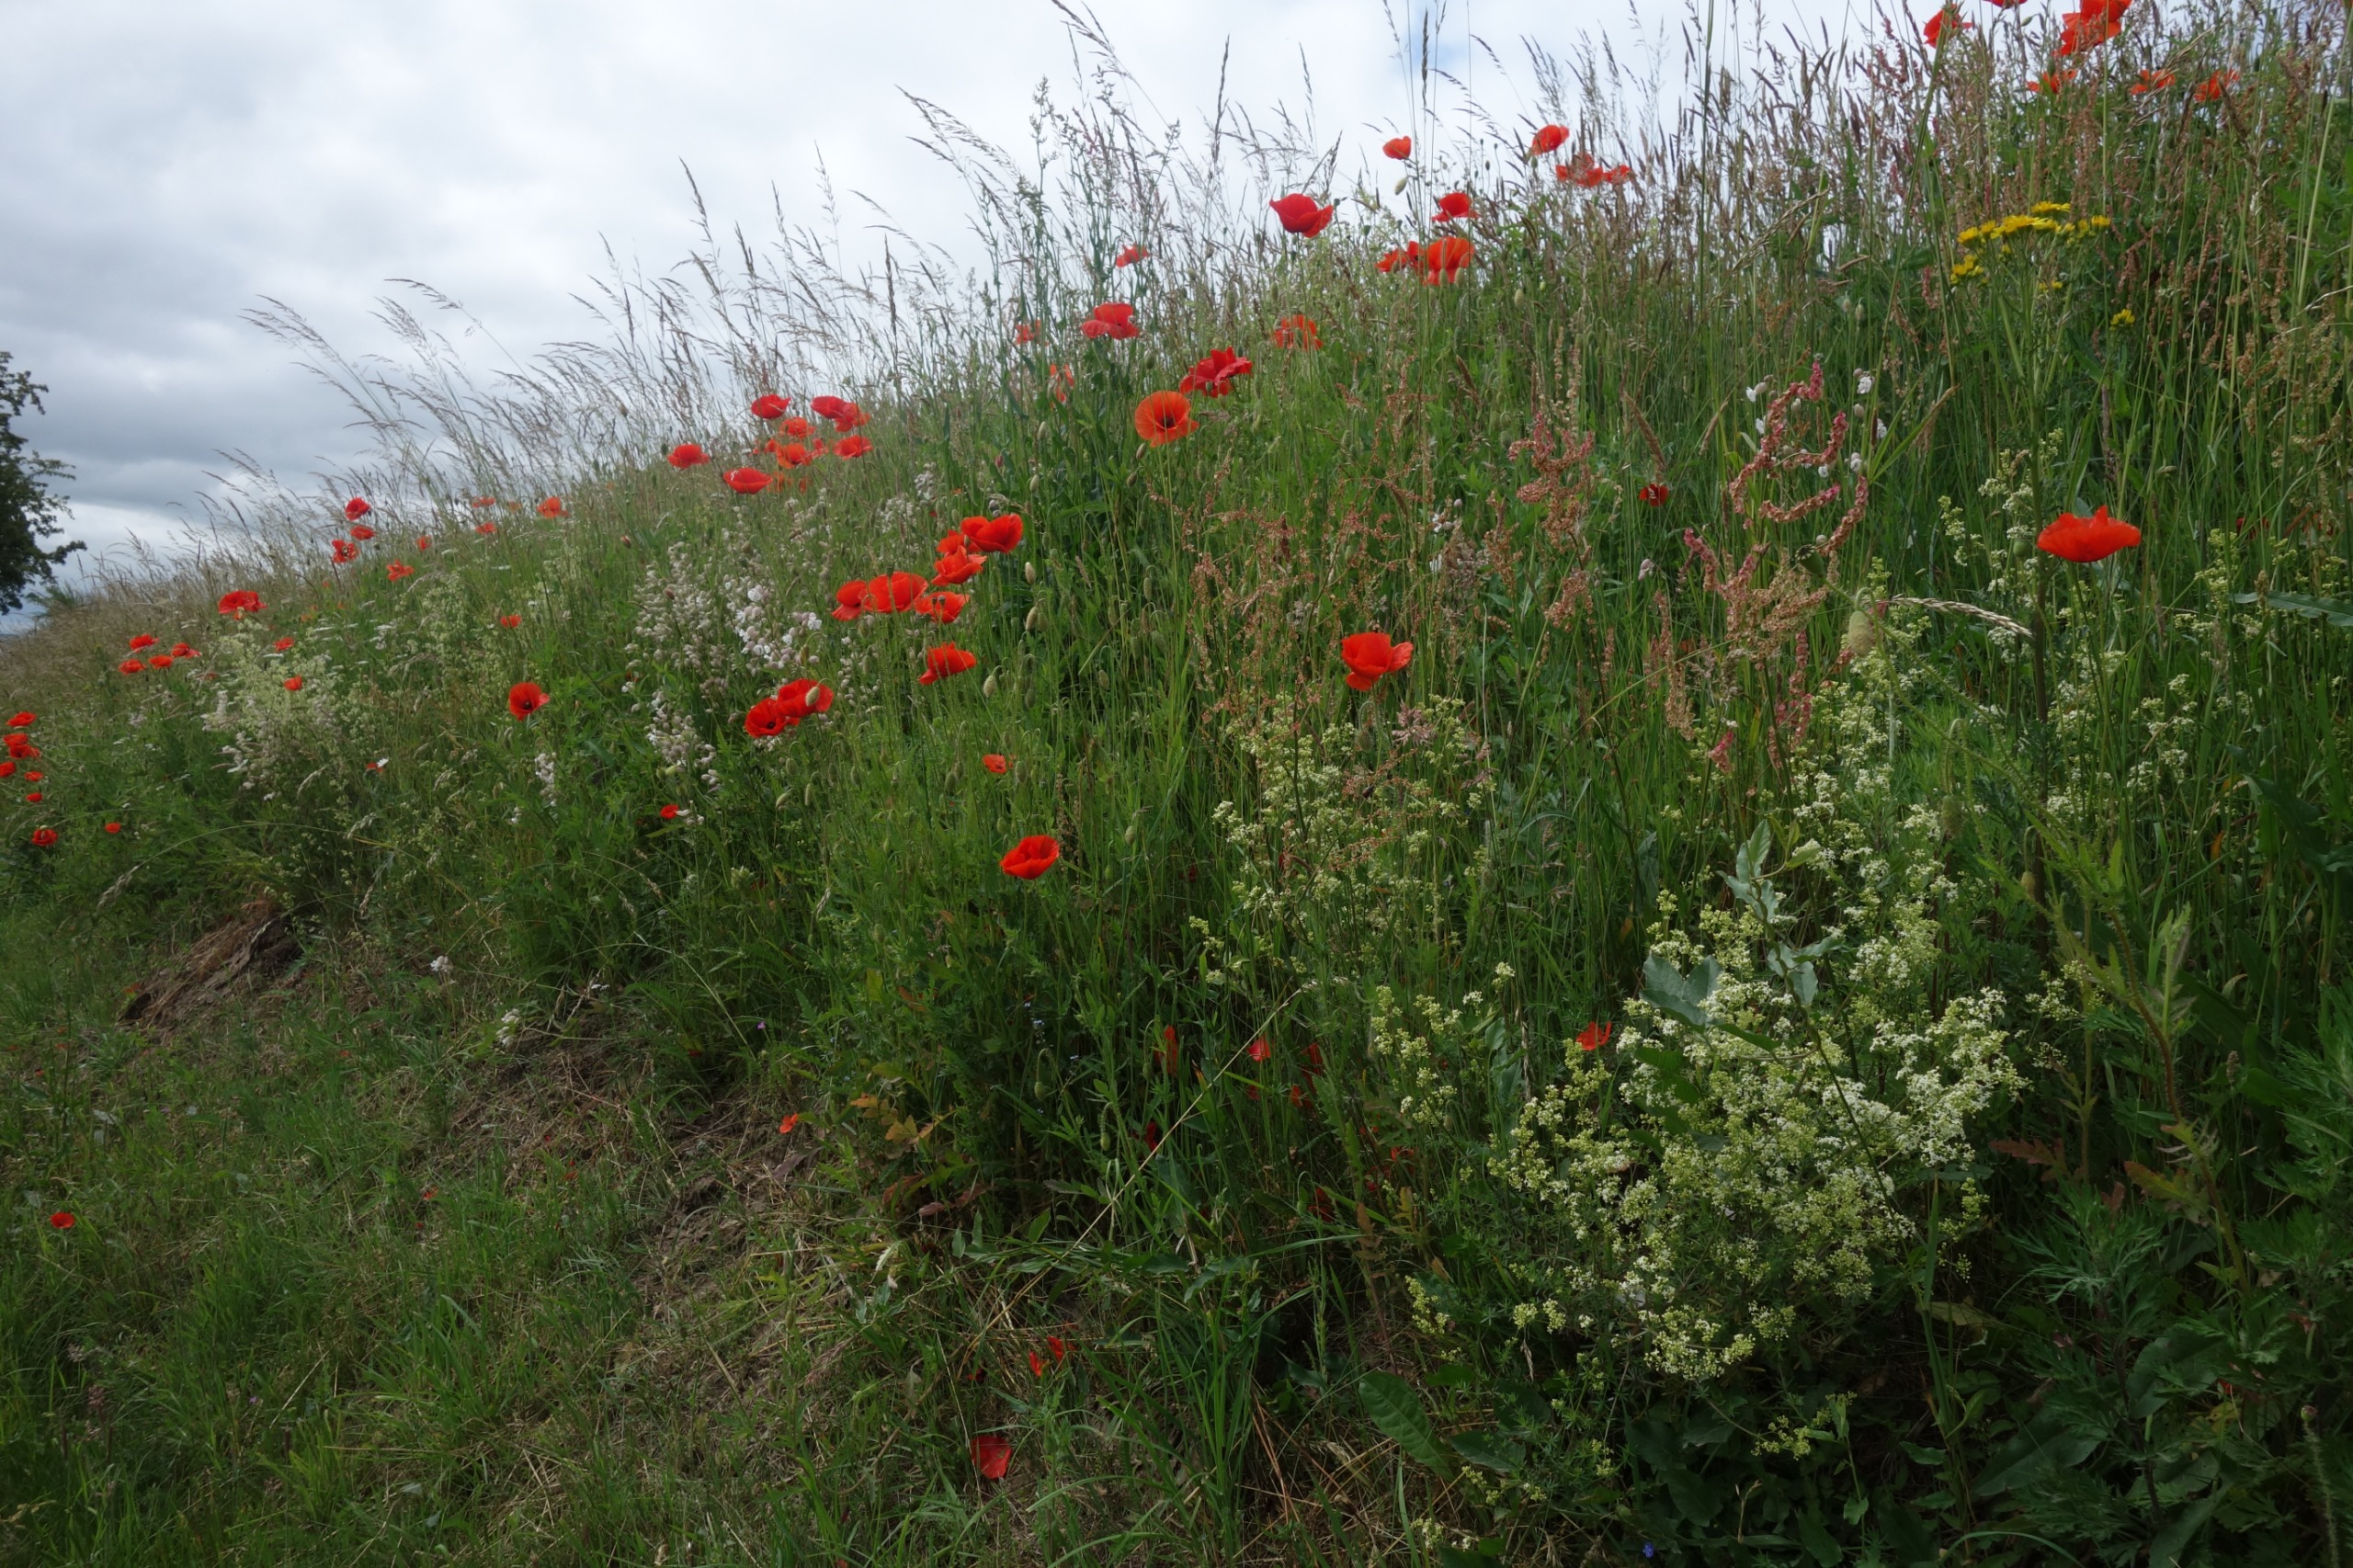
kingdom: Plantae
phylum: Tracheophyta
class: Magnoliopsida
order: Ranunculales
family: Papaveraceae
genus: Papaver
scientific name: Papaver rhoeas
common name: Korn-valmue
